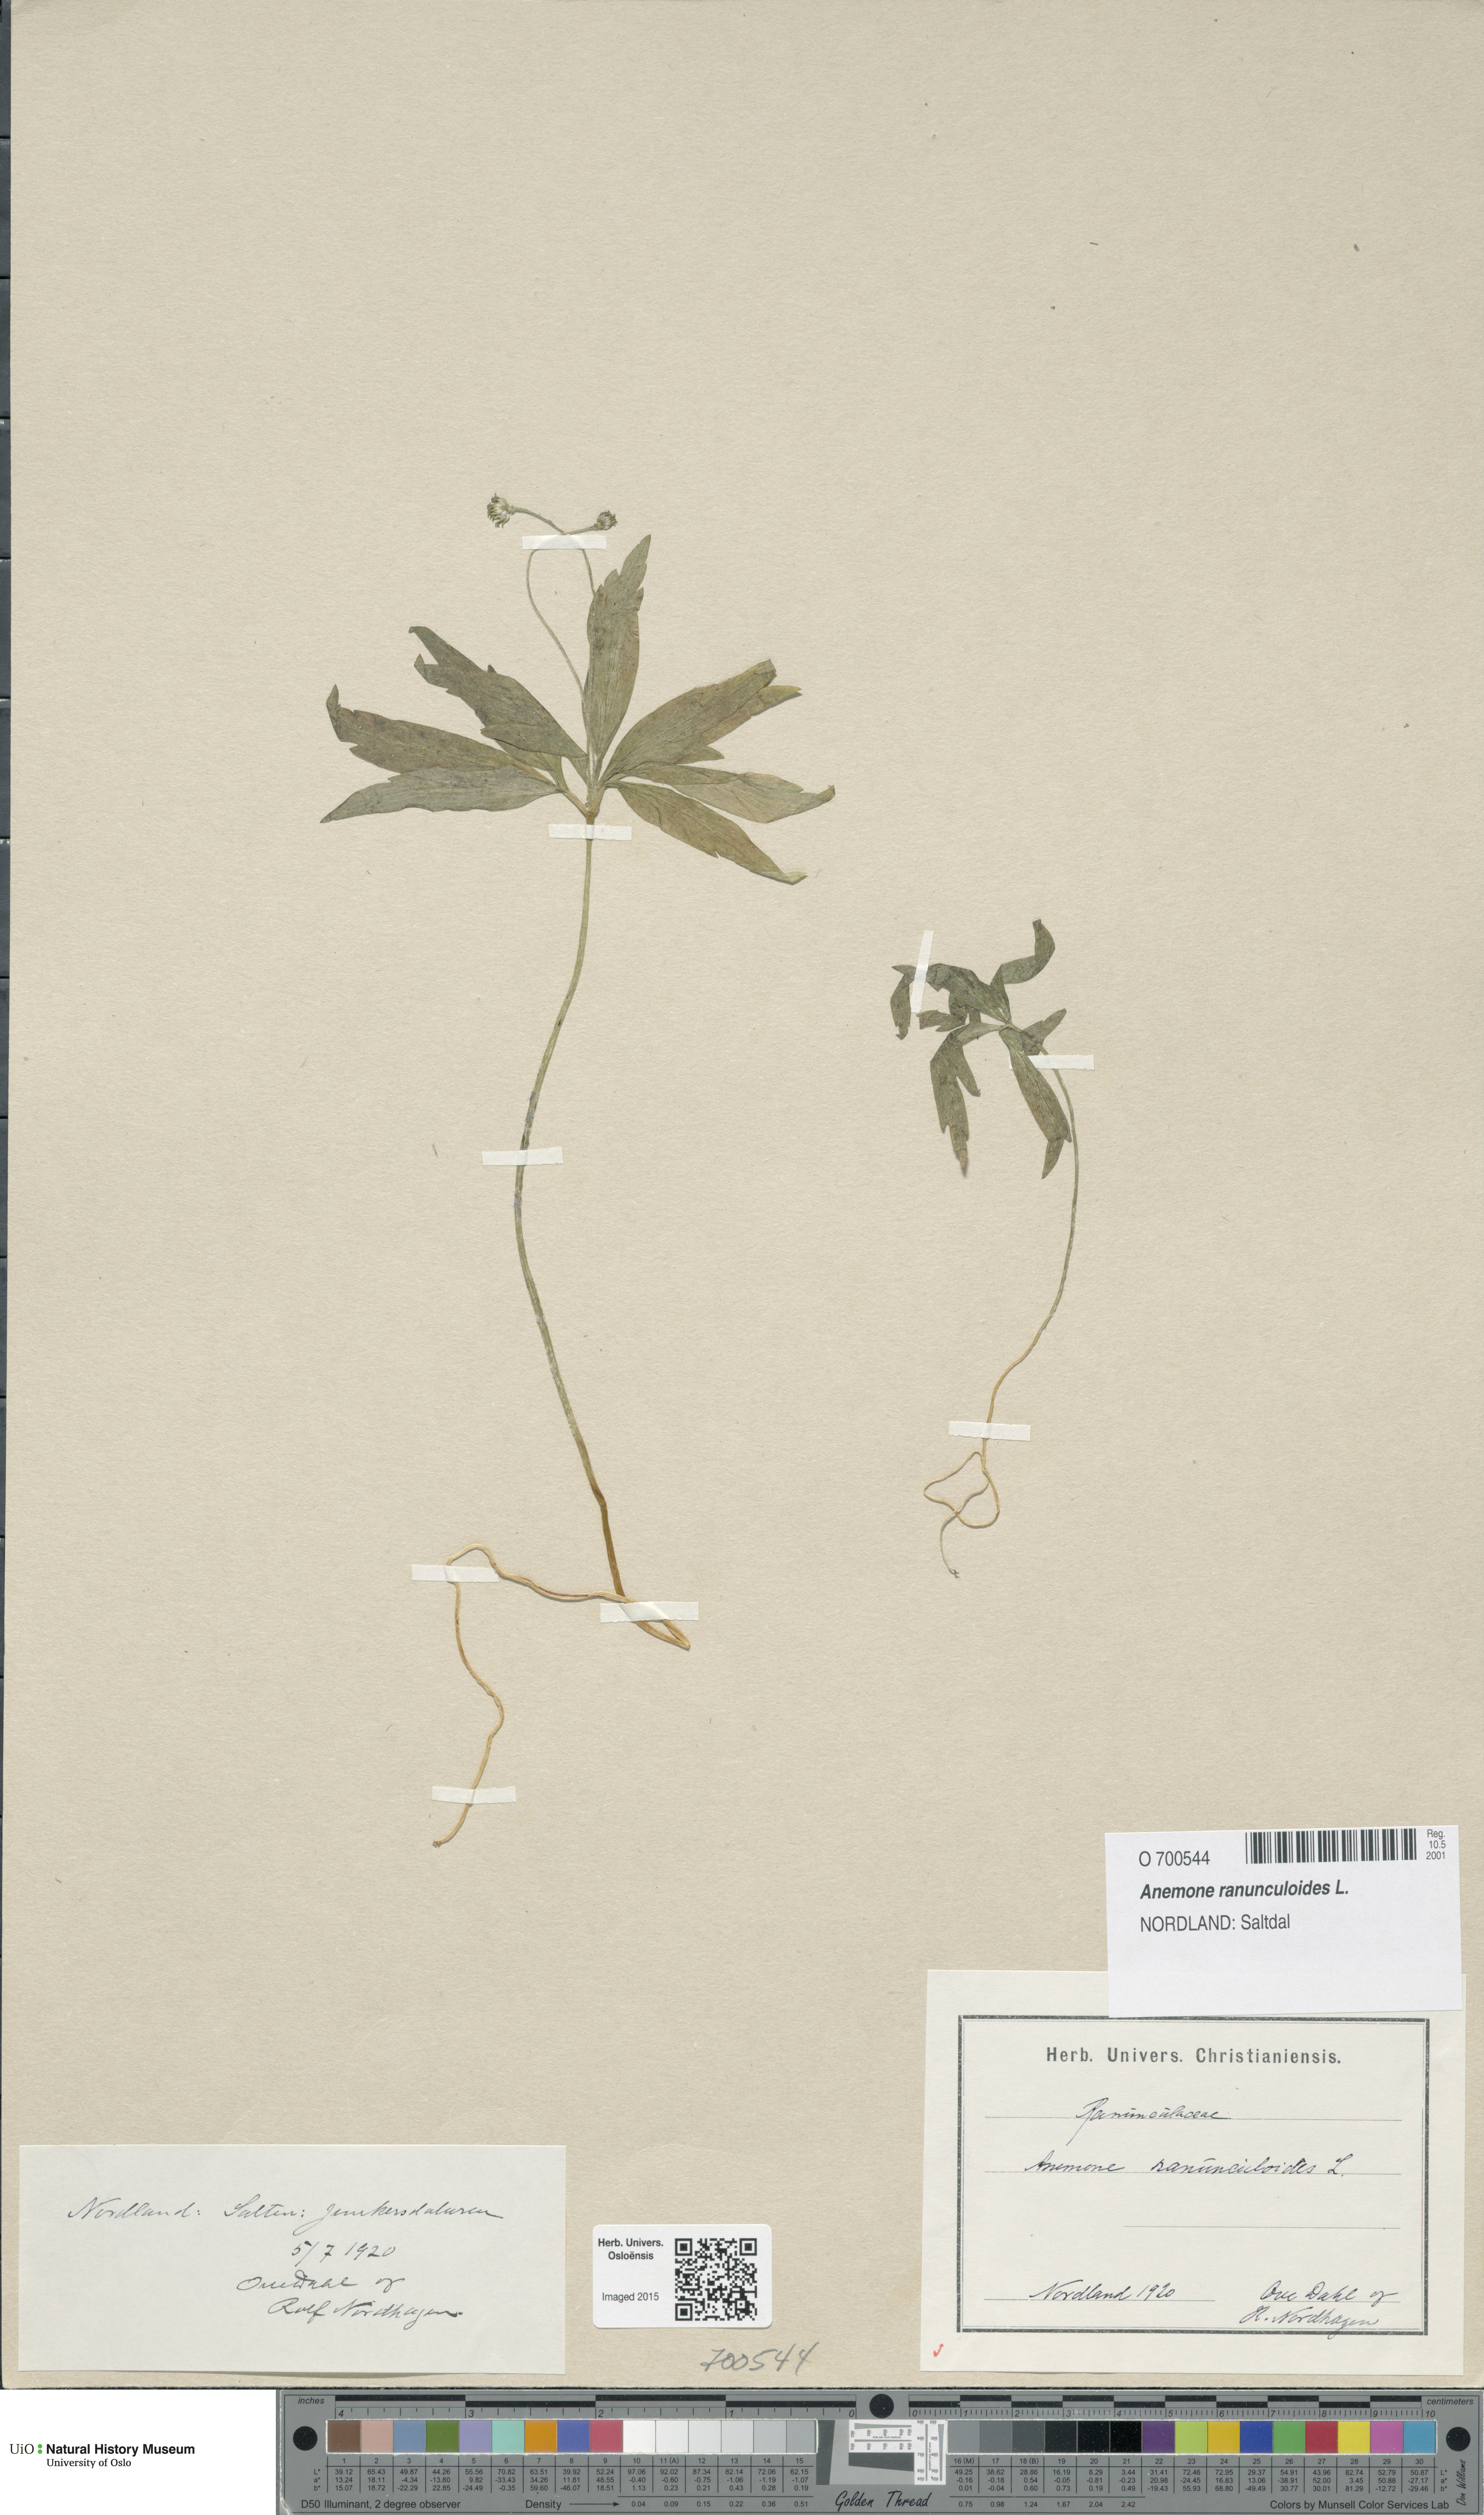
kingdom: Plantae
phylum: Tracheophyta
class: Magnoliopsida
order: Ranunculales
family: Ranunculaceae
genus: Anemone
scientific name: Anemone ranunculoides
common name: Yellow anemone
